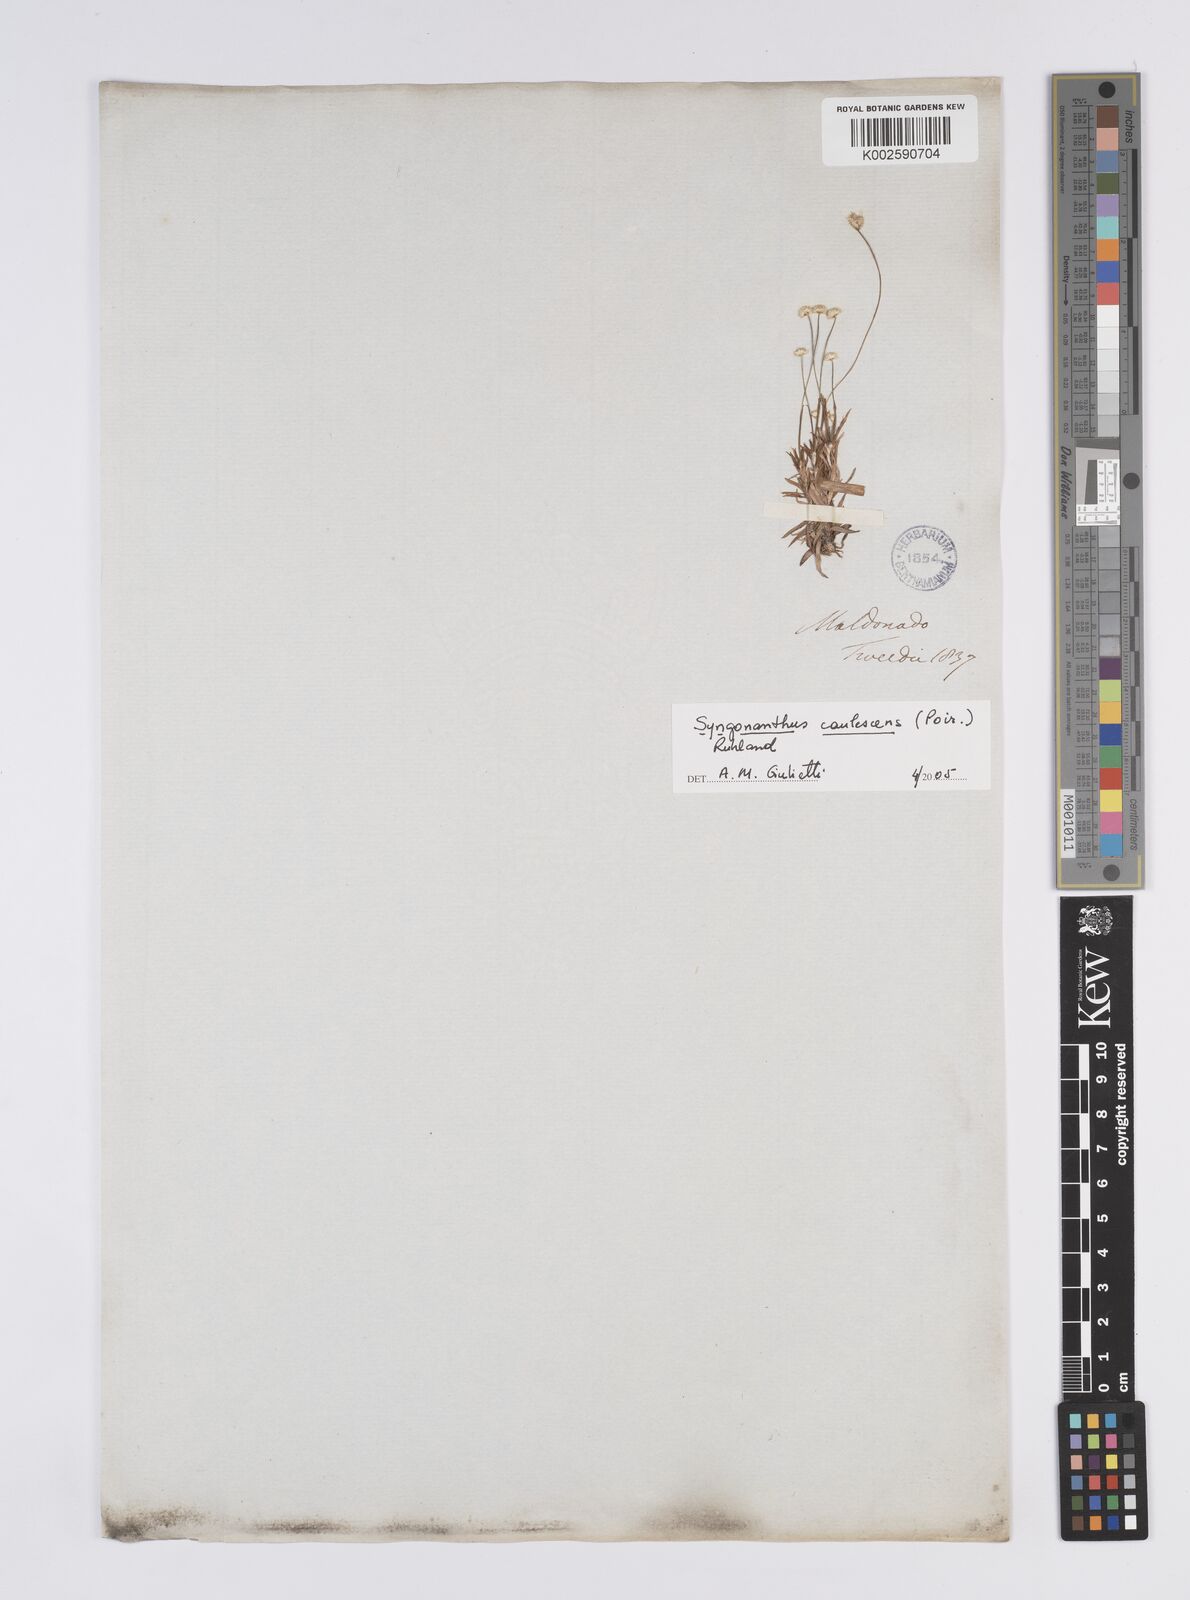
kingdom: Plantae
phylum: Tracheophyta
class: Liliopsida
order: Poales
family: Eriocaulaceae
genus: Syngonanthus
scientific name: Syngonanthus caulescens
